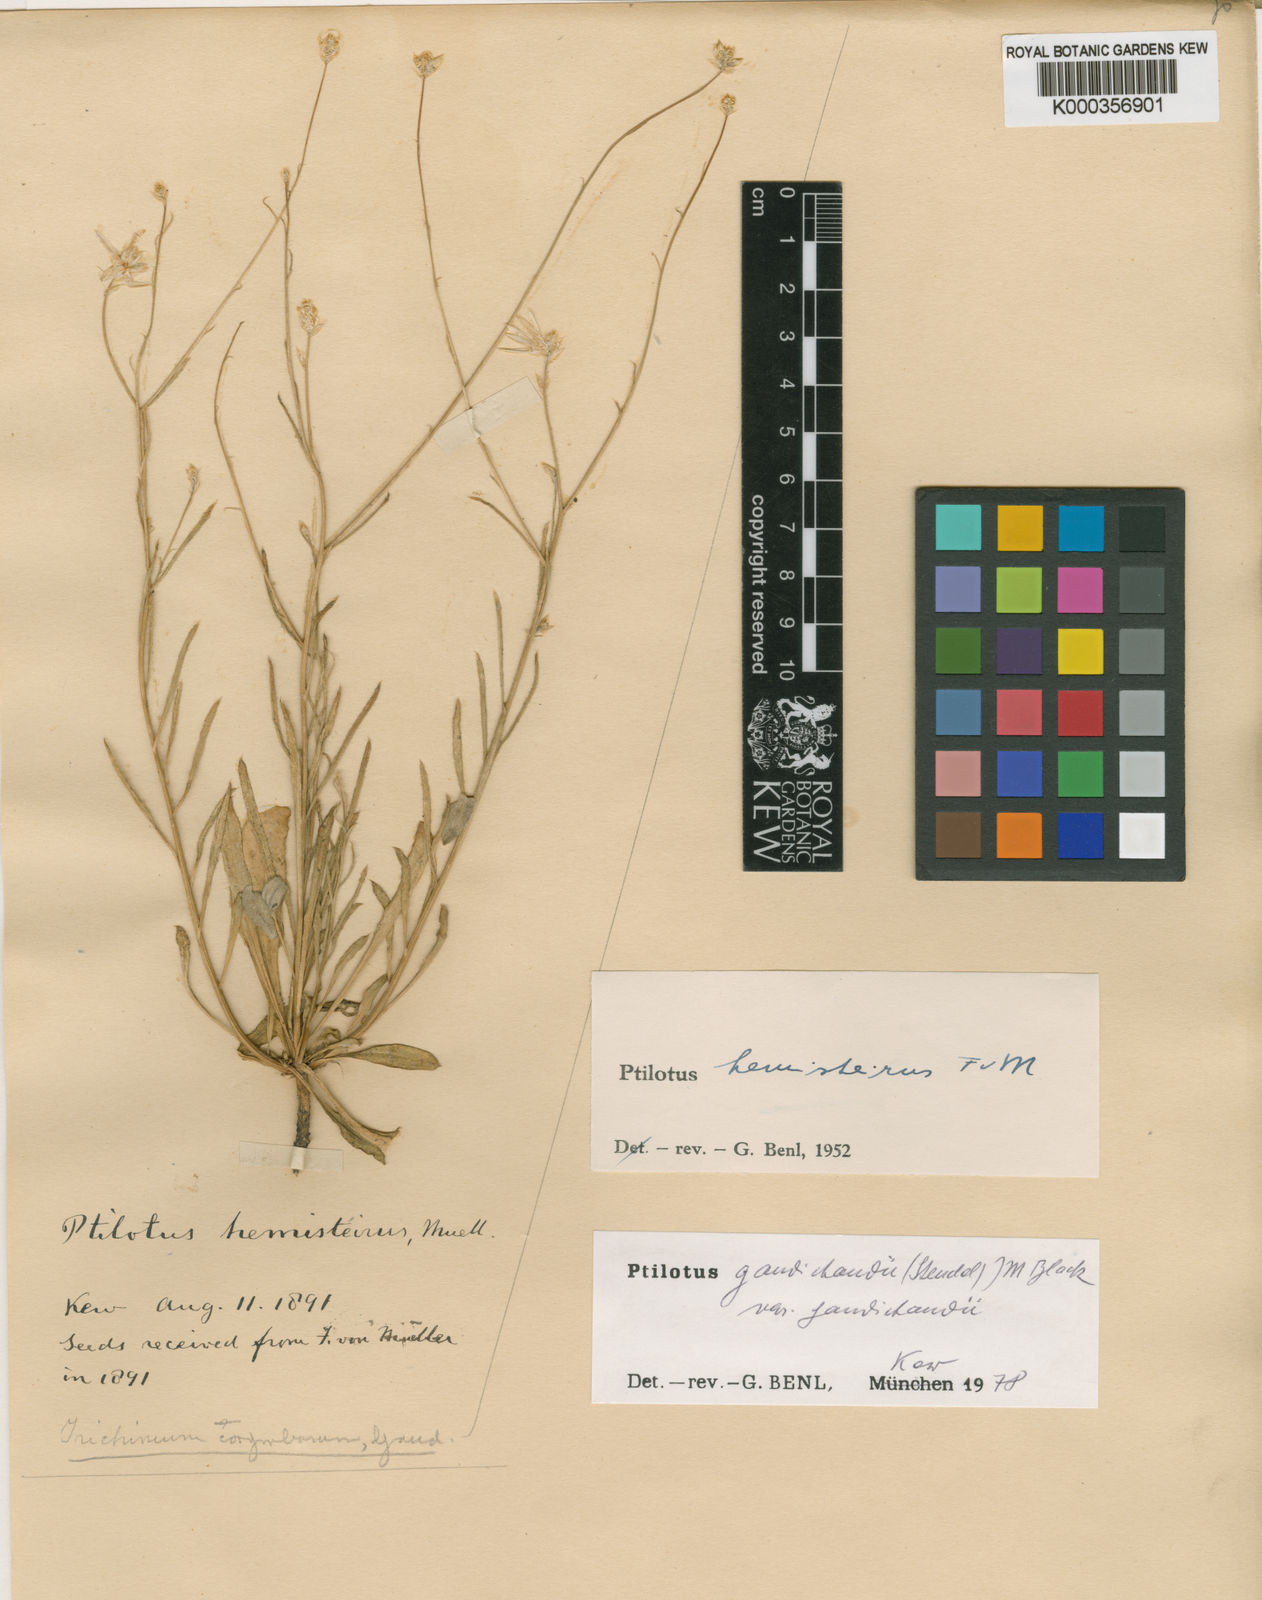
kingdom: Plantae
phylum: Tracheophyta
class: Magnoliopsida
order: Caryophyllales
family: Amaranthaceae
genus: Ptilotus
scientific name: Ptilotus
